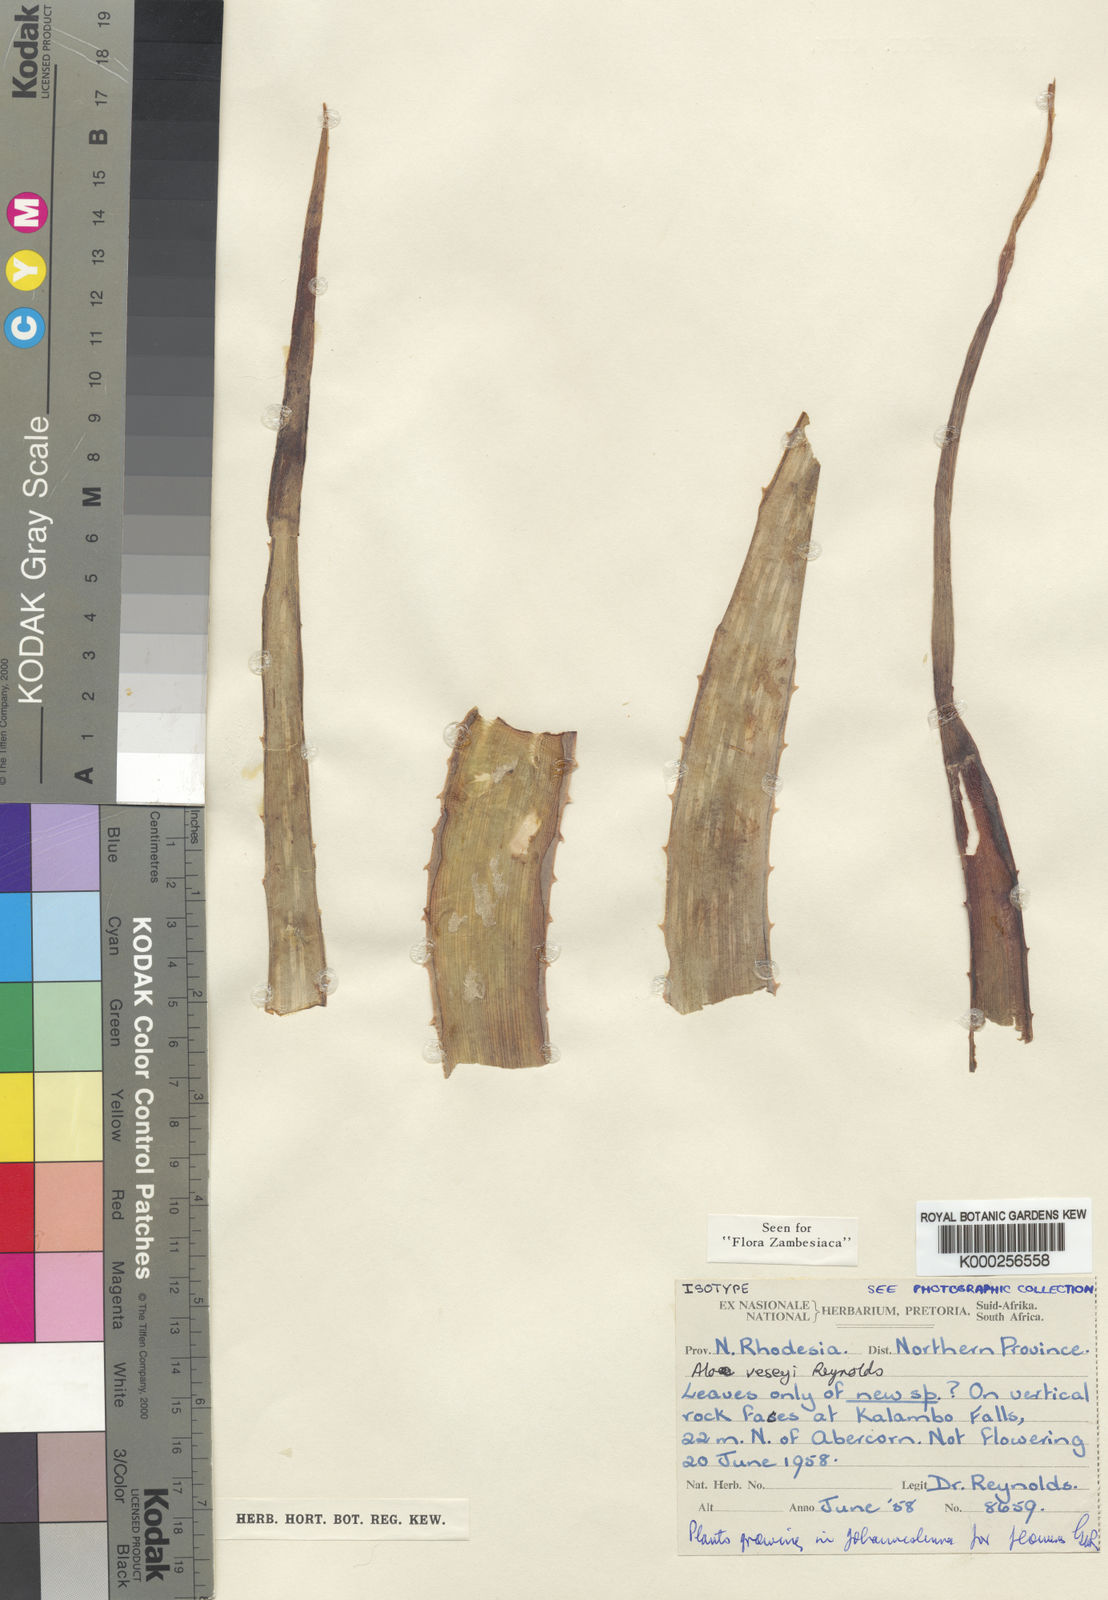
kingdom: Plantae
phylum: Tracheophyta
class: Liliopsida
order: Asparagales
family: Asphodelaceae
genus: Aloe
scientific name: Aloe veseyi
